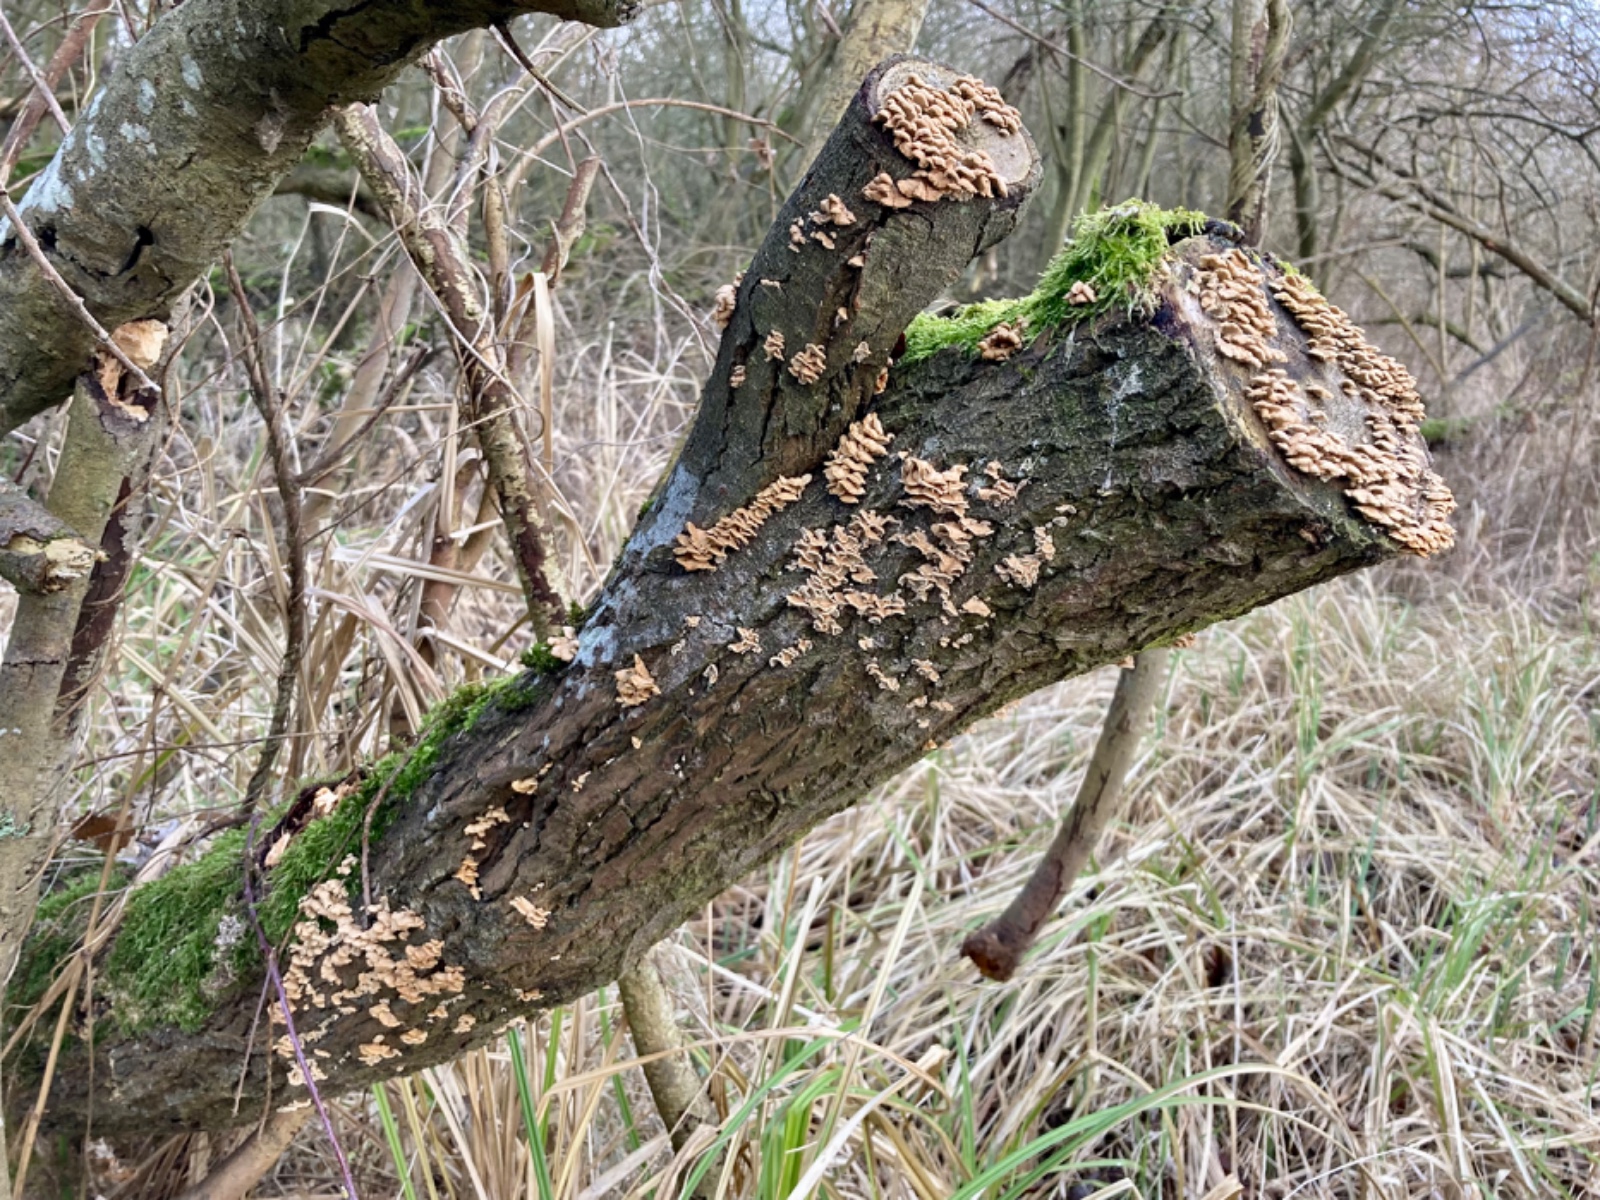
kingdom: Fungi
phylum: Basidiomycota
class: Agaricomycetes
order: Amylocorticiales
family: Amylocorticiaceae
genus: Plicaturopsis
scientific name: Plicaturopsis crispa
